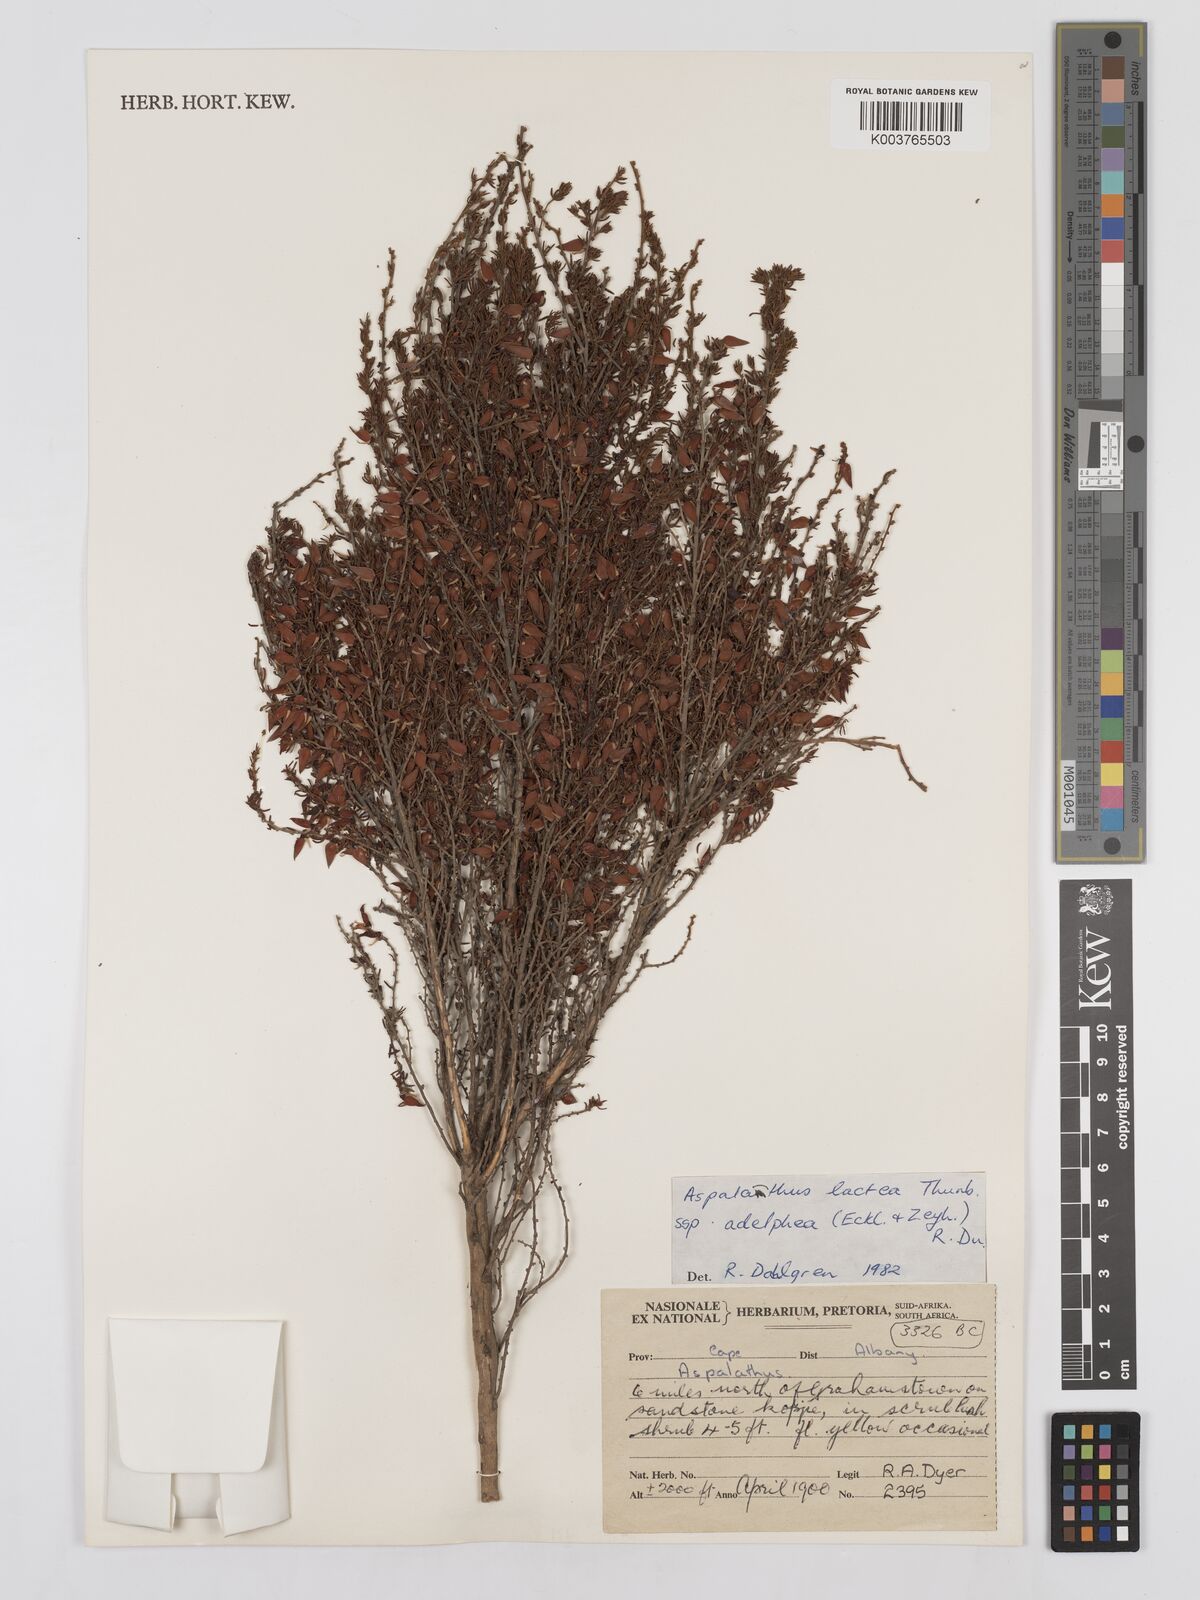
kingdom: Plantae
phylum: Tracheophyta
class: Magnoliopsida
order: Fabales
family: Fabaceae
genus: Aspalathus
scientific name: Aspalathus lactea
